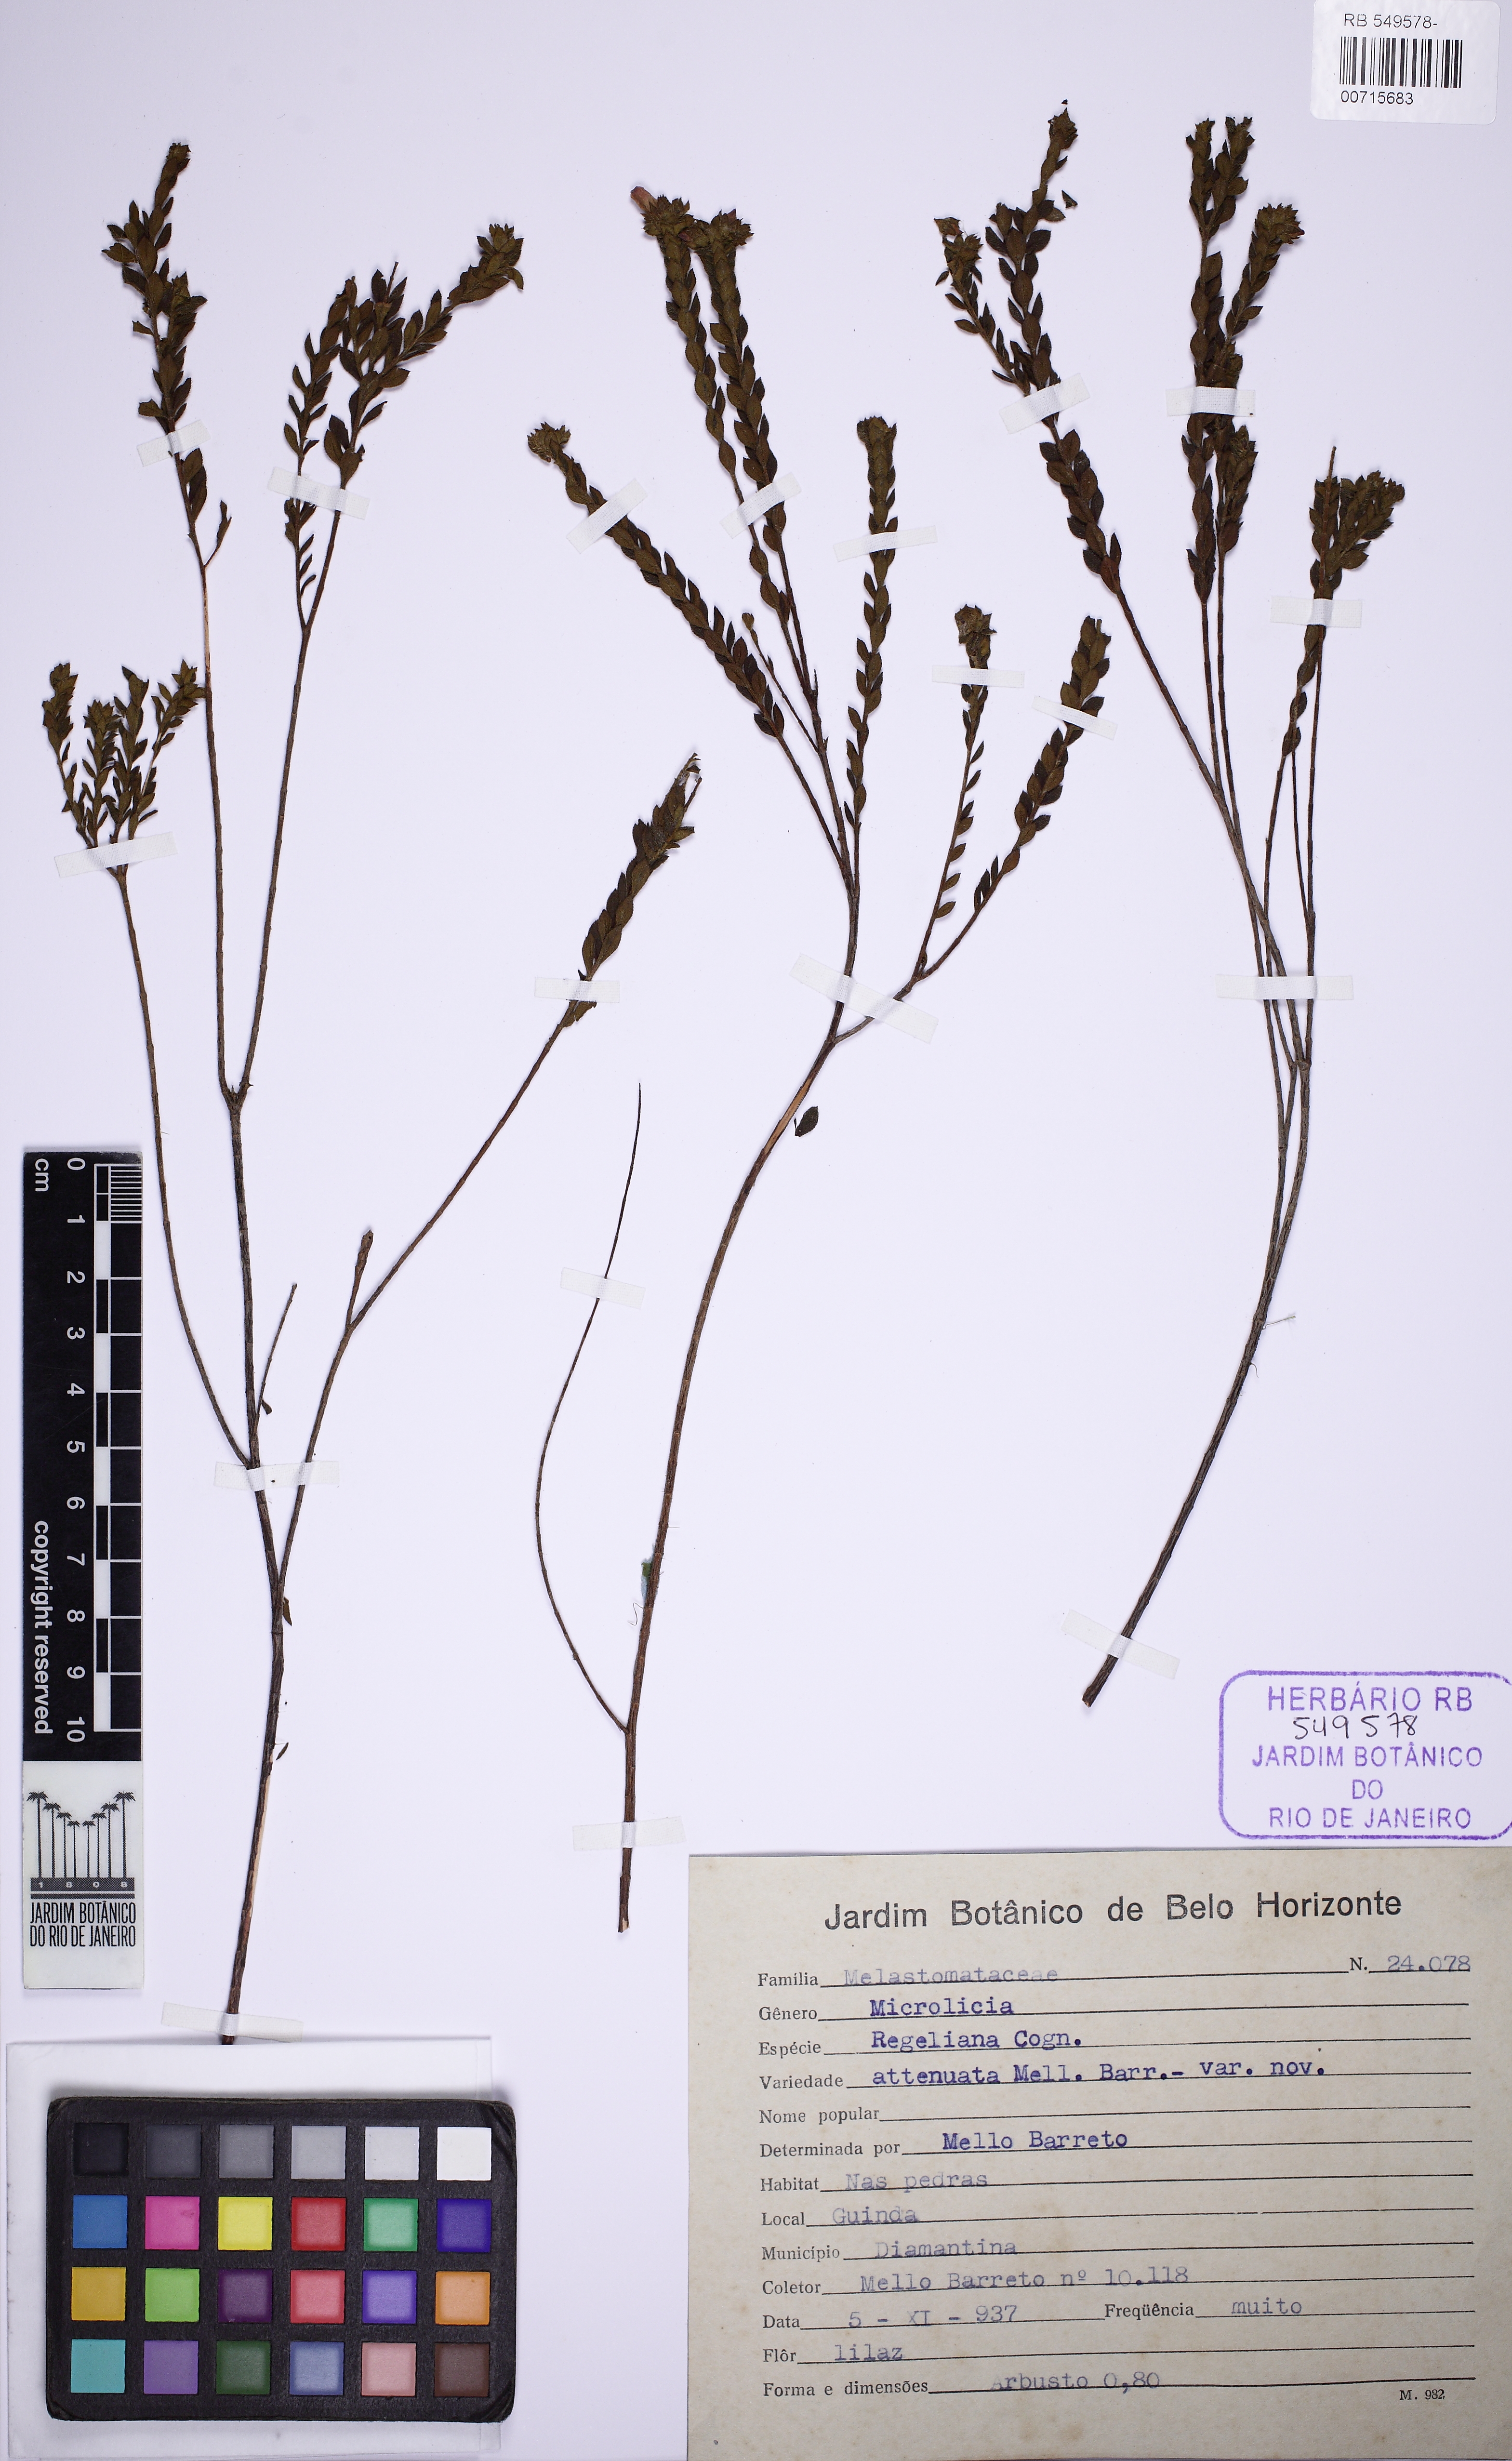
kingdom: Plantae
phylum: Tracheophyta
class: Magnoliopsida
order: Myrtales
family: Melastomataceae
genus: Microlicia
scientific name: Microlicia regeliana
